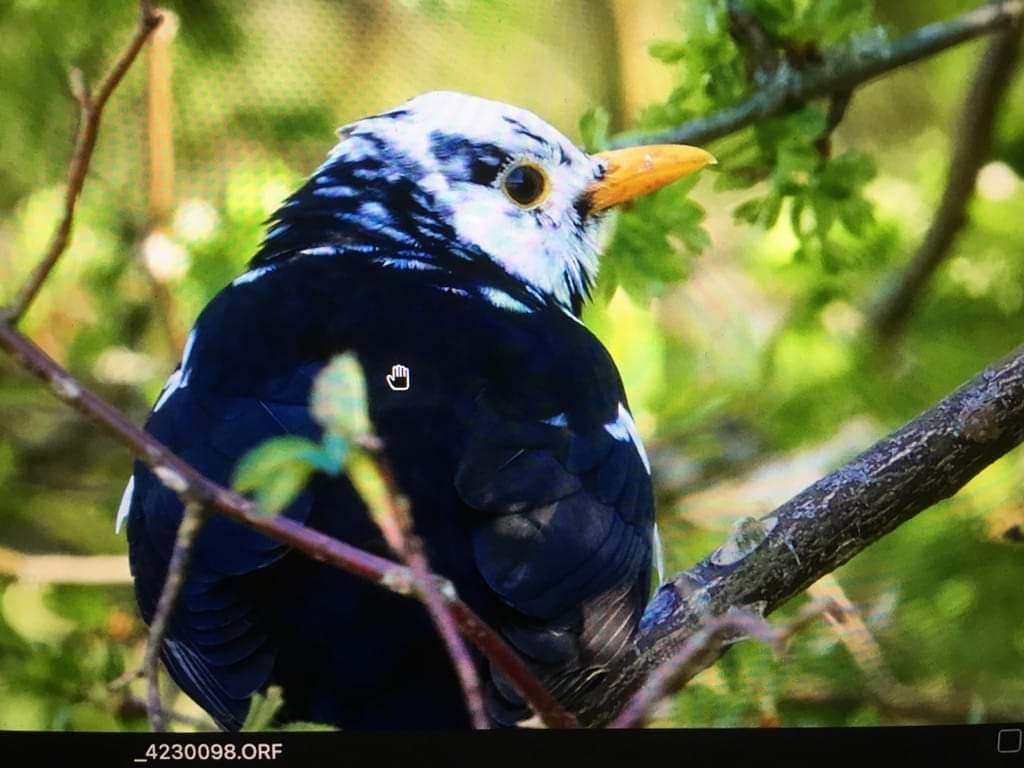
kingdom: Animalia
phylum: Chordata
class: Aves
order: Passeriformes
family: Turdidae
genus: Turdus
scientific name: Turdus merula
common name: Solsort
